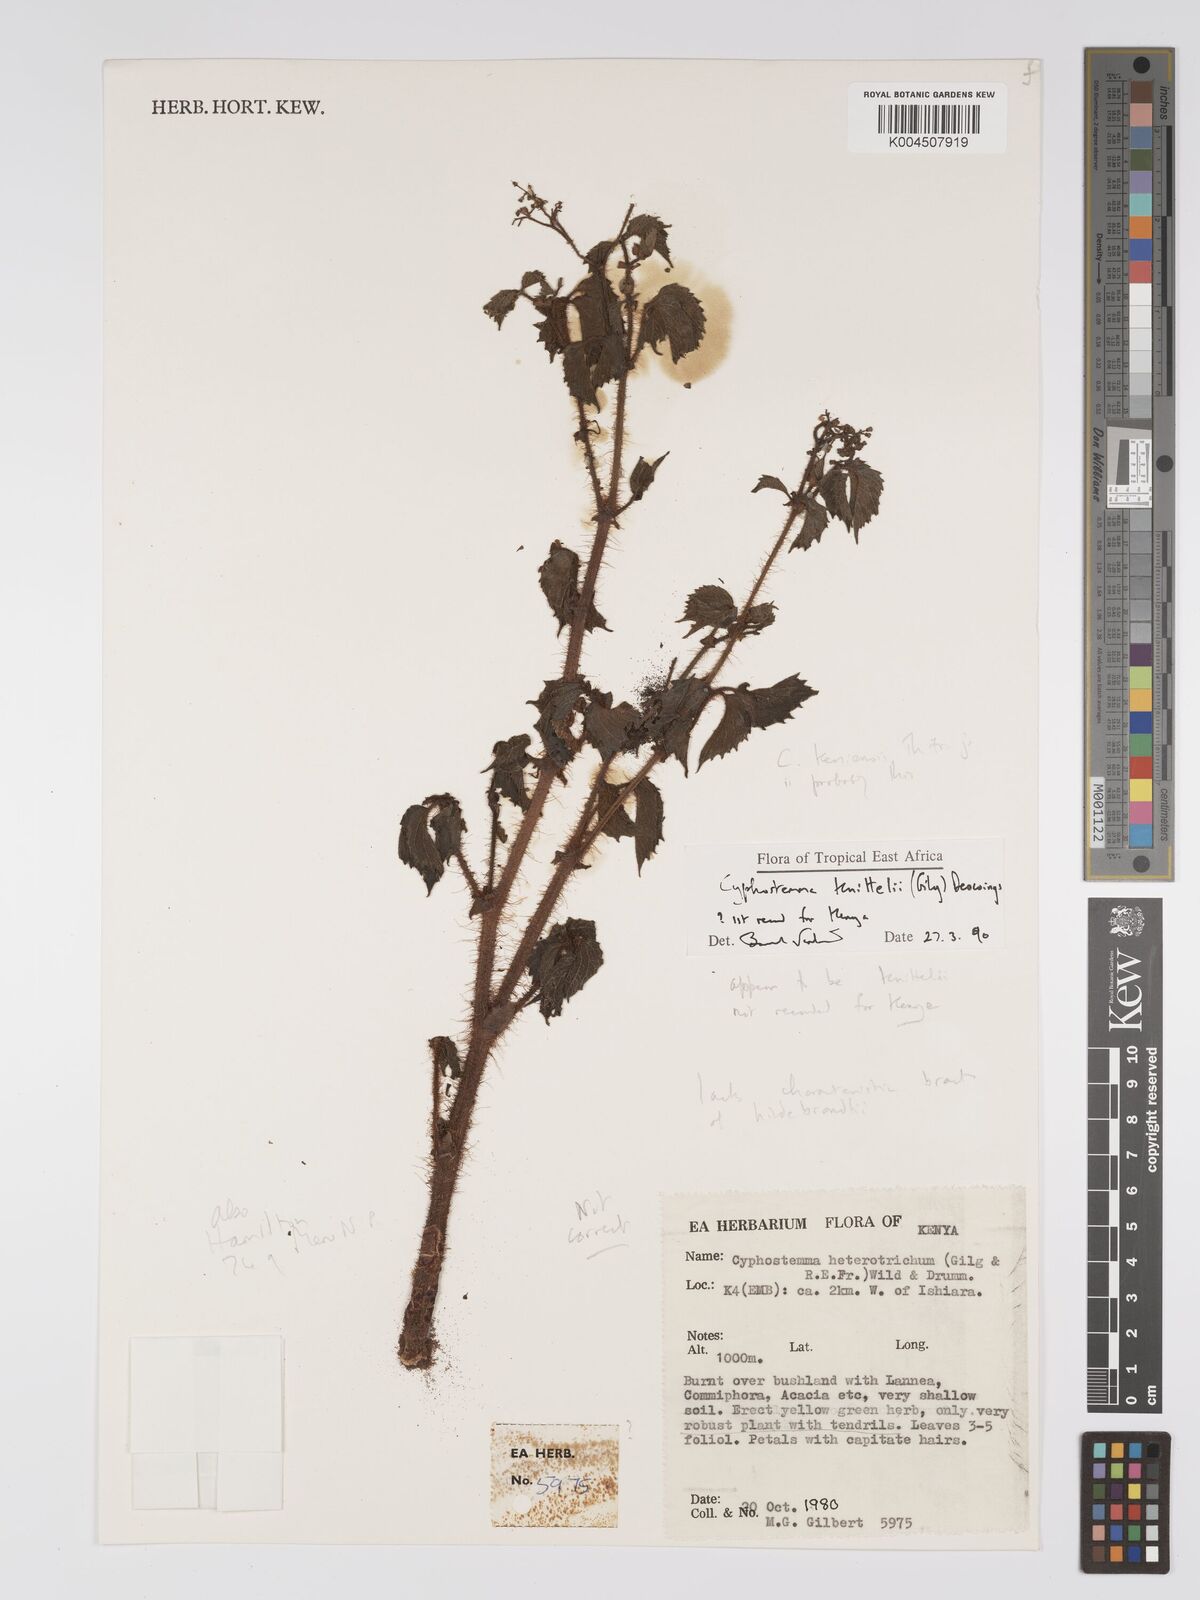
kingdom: Plantae
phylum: Tracheophyta
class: Magnoliopsida
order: Vitales
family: Vitaceae
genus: Cyphostemma
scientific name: Cyphostemma knittelii
